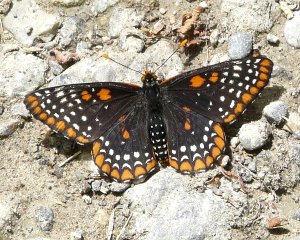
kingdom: Animalia
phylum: Arthropoda
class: Insecta
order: Lepidoptera
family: Nymphalidae
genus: Euphydryas
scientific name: Euphydryas phaeton
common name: Baltimore Checkerspot
